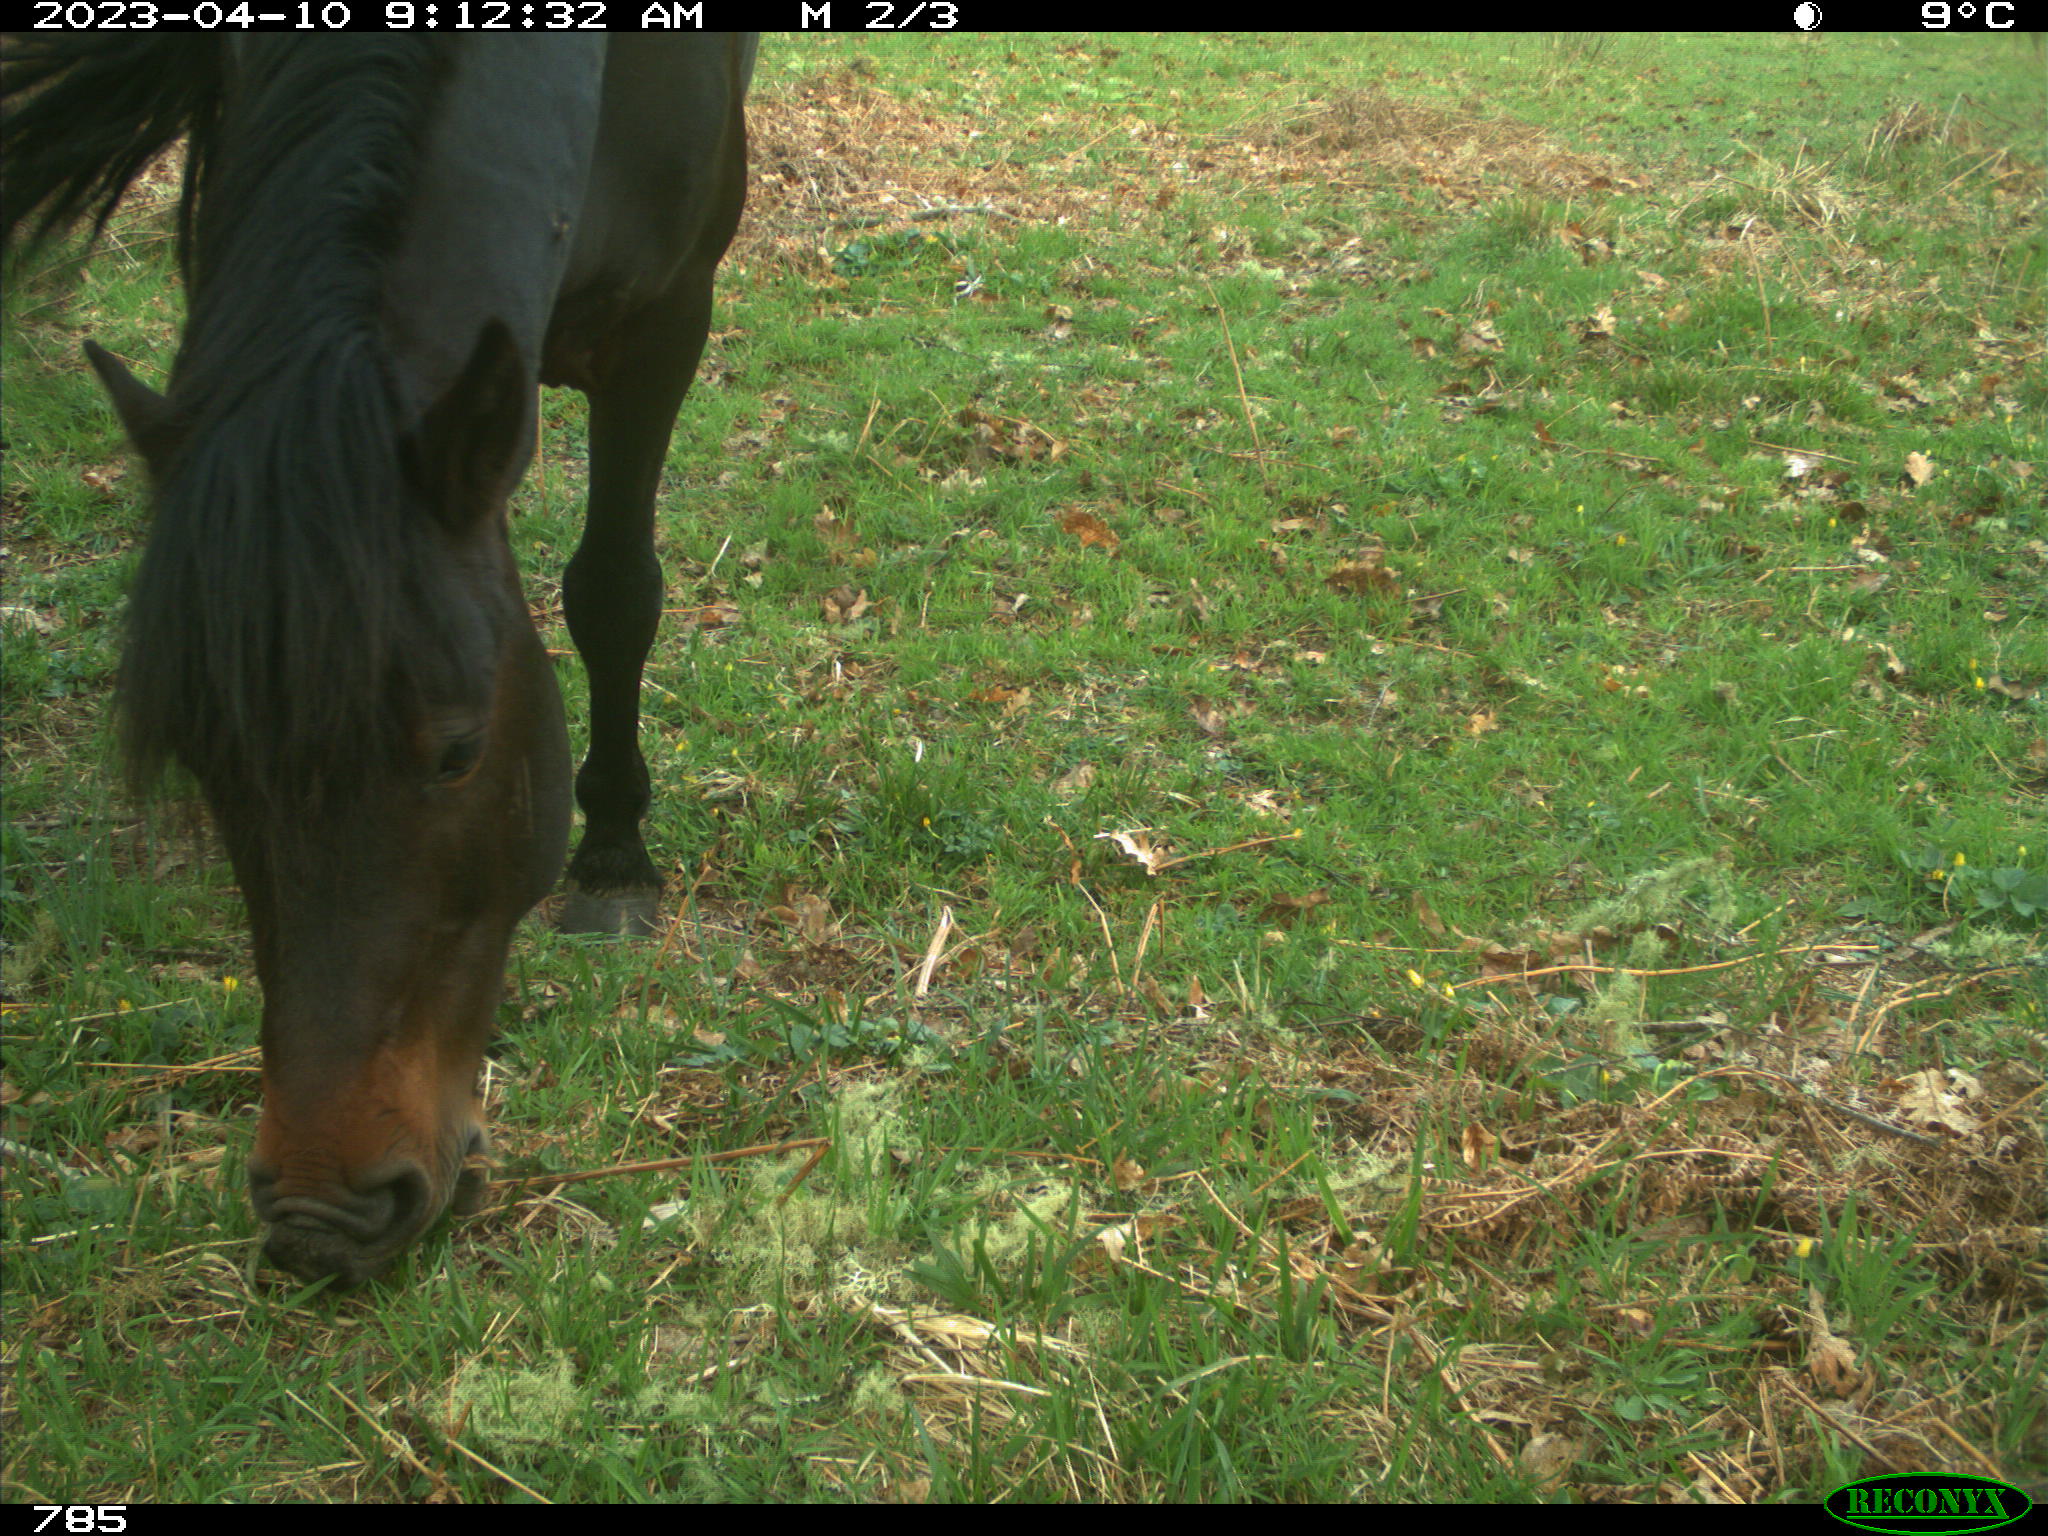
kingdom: Animalia
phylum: Chordata
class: Mammalia
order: Perissodactyla
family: Equidae
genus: Equus
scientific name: Equus caballus
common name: Horse
